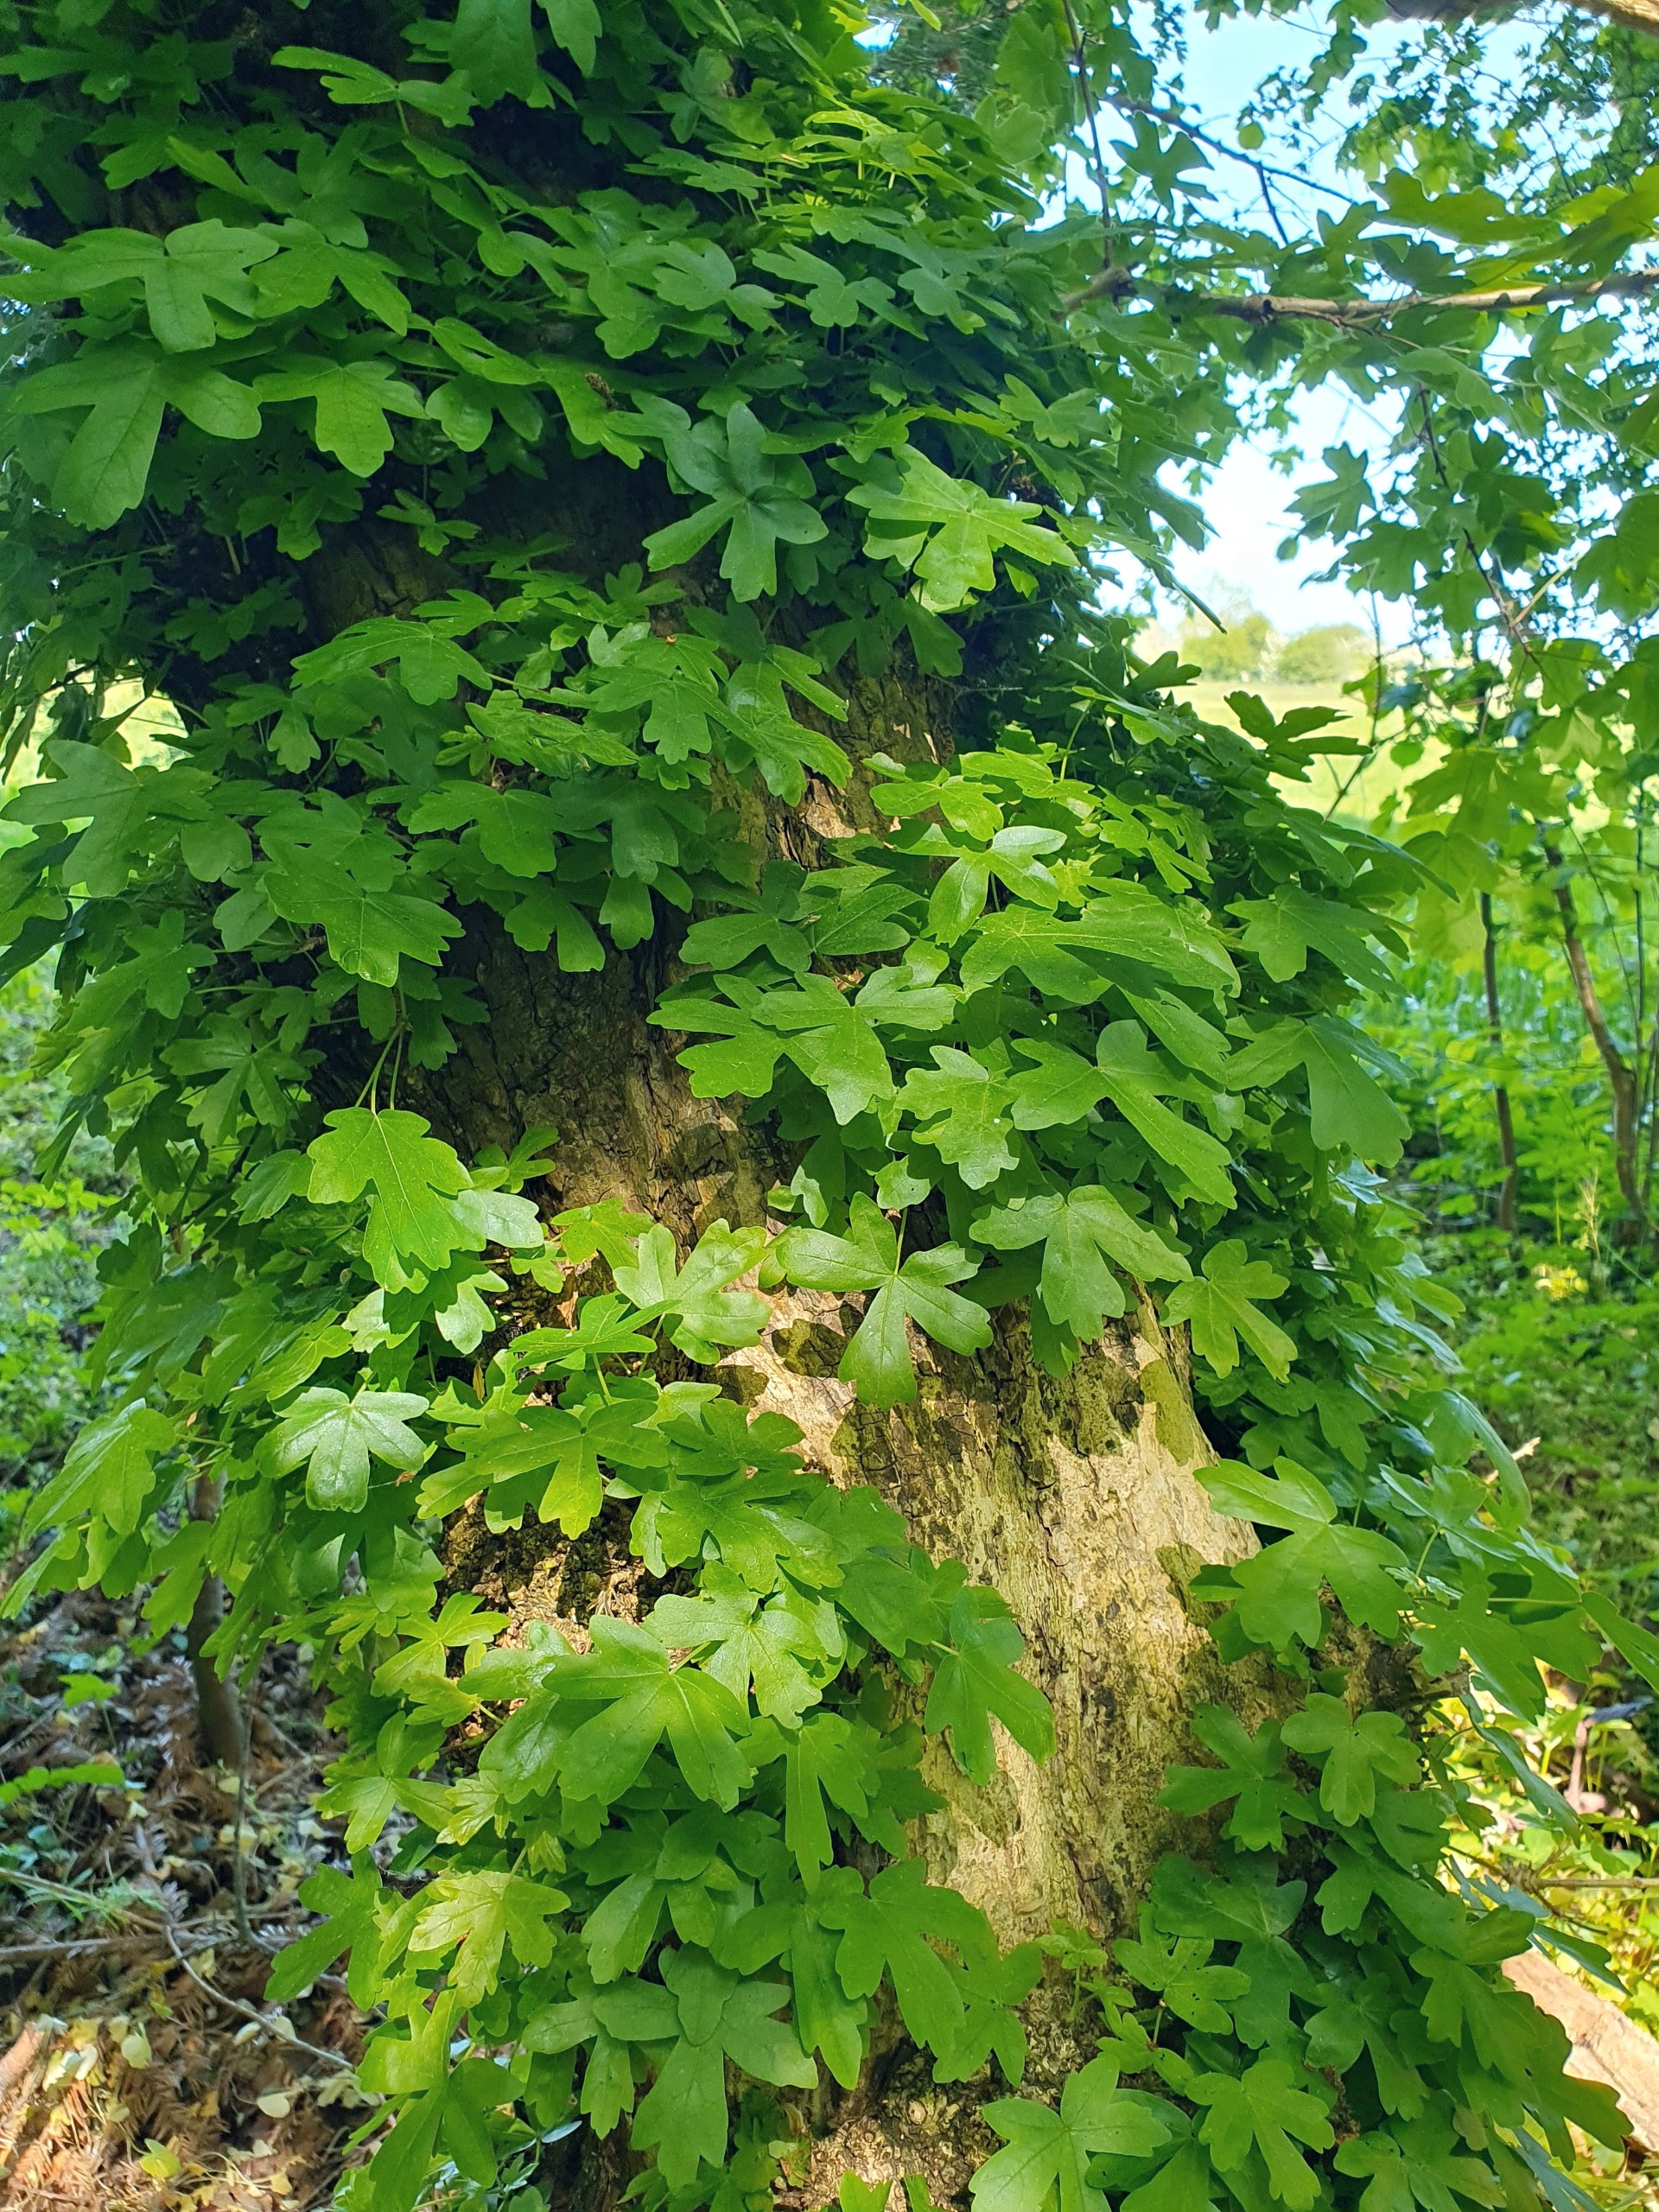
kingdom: Plantae
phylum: Tracheophyta
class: Magnoliopsida
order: Sapindales
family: Sapindaceae
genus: Acer
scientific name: Acer campestre
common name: Navr
